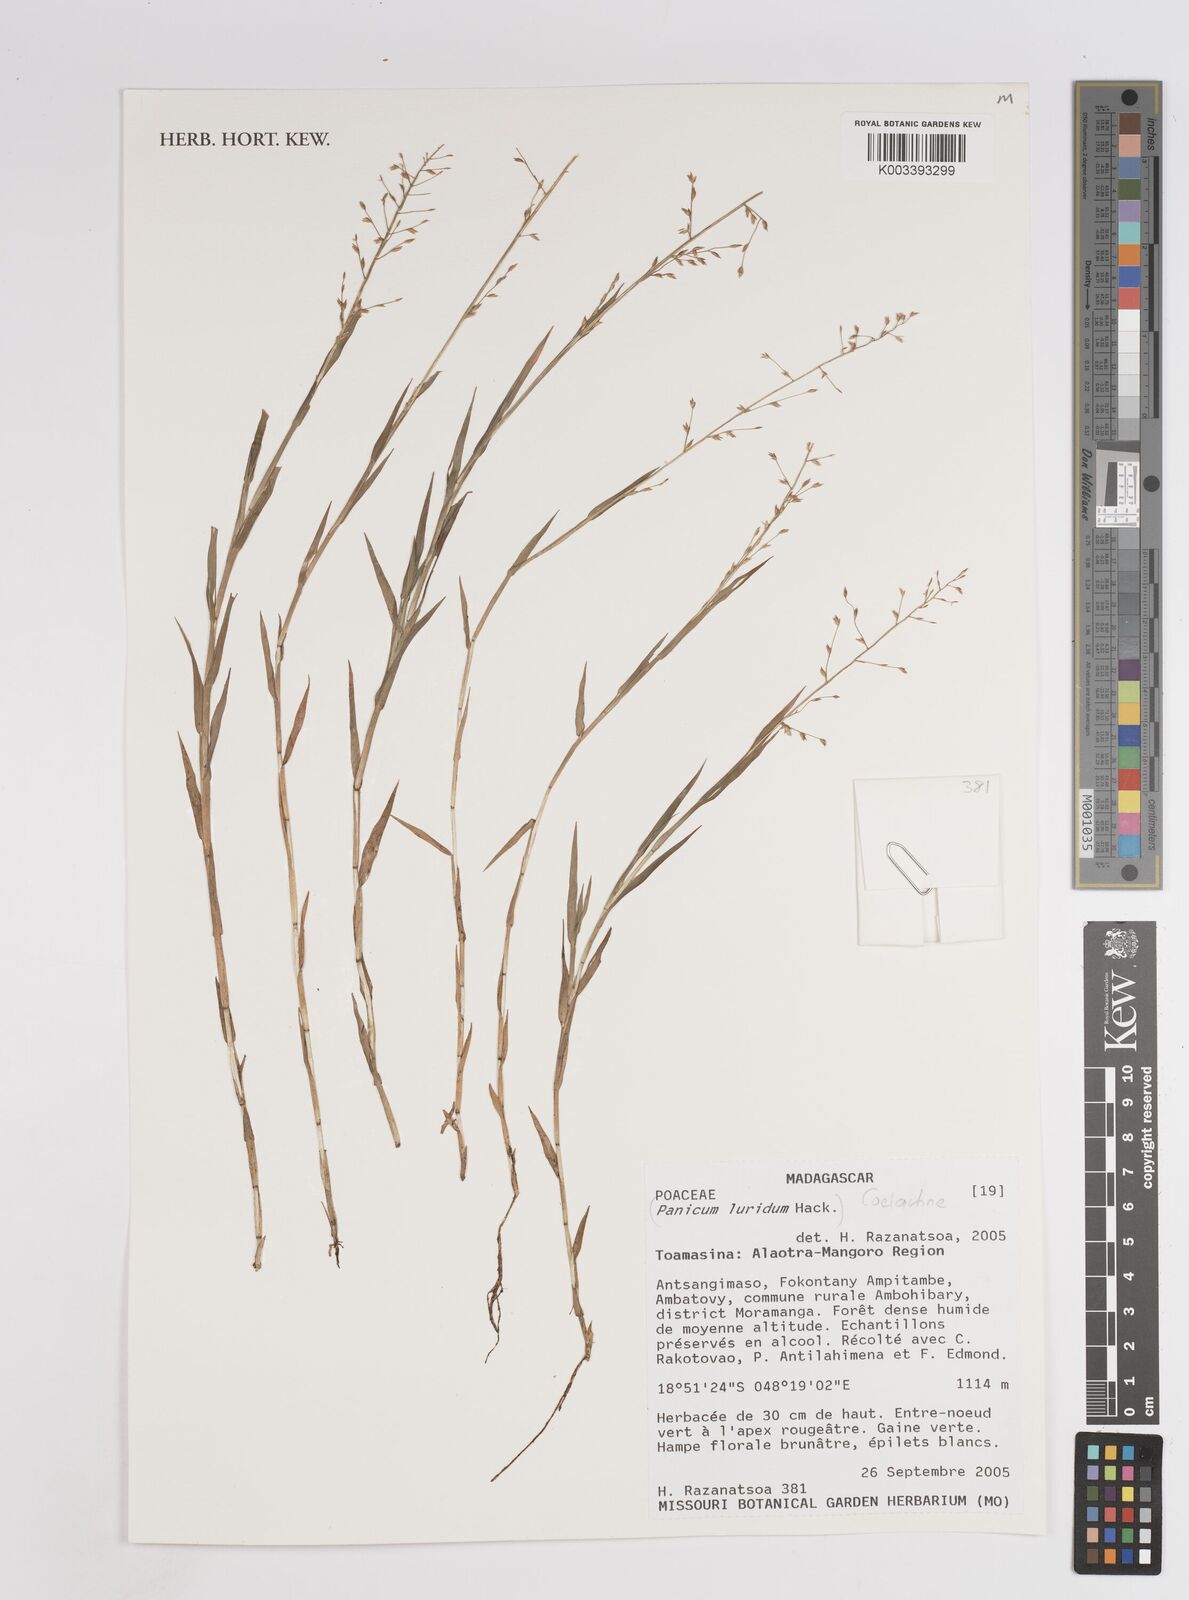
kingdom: Plantae
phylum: Tracheophyta
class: Liliopsida
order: Poales
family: Poaceae
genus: Panicum
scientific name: Panicum luridum
